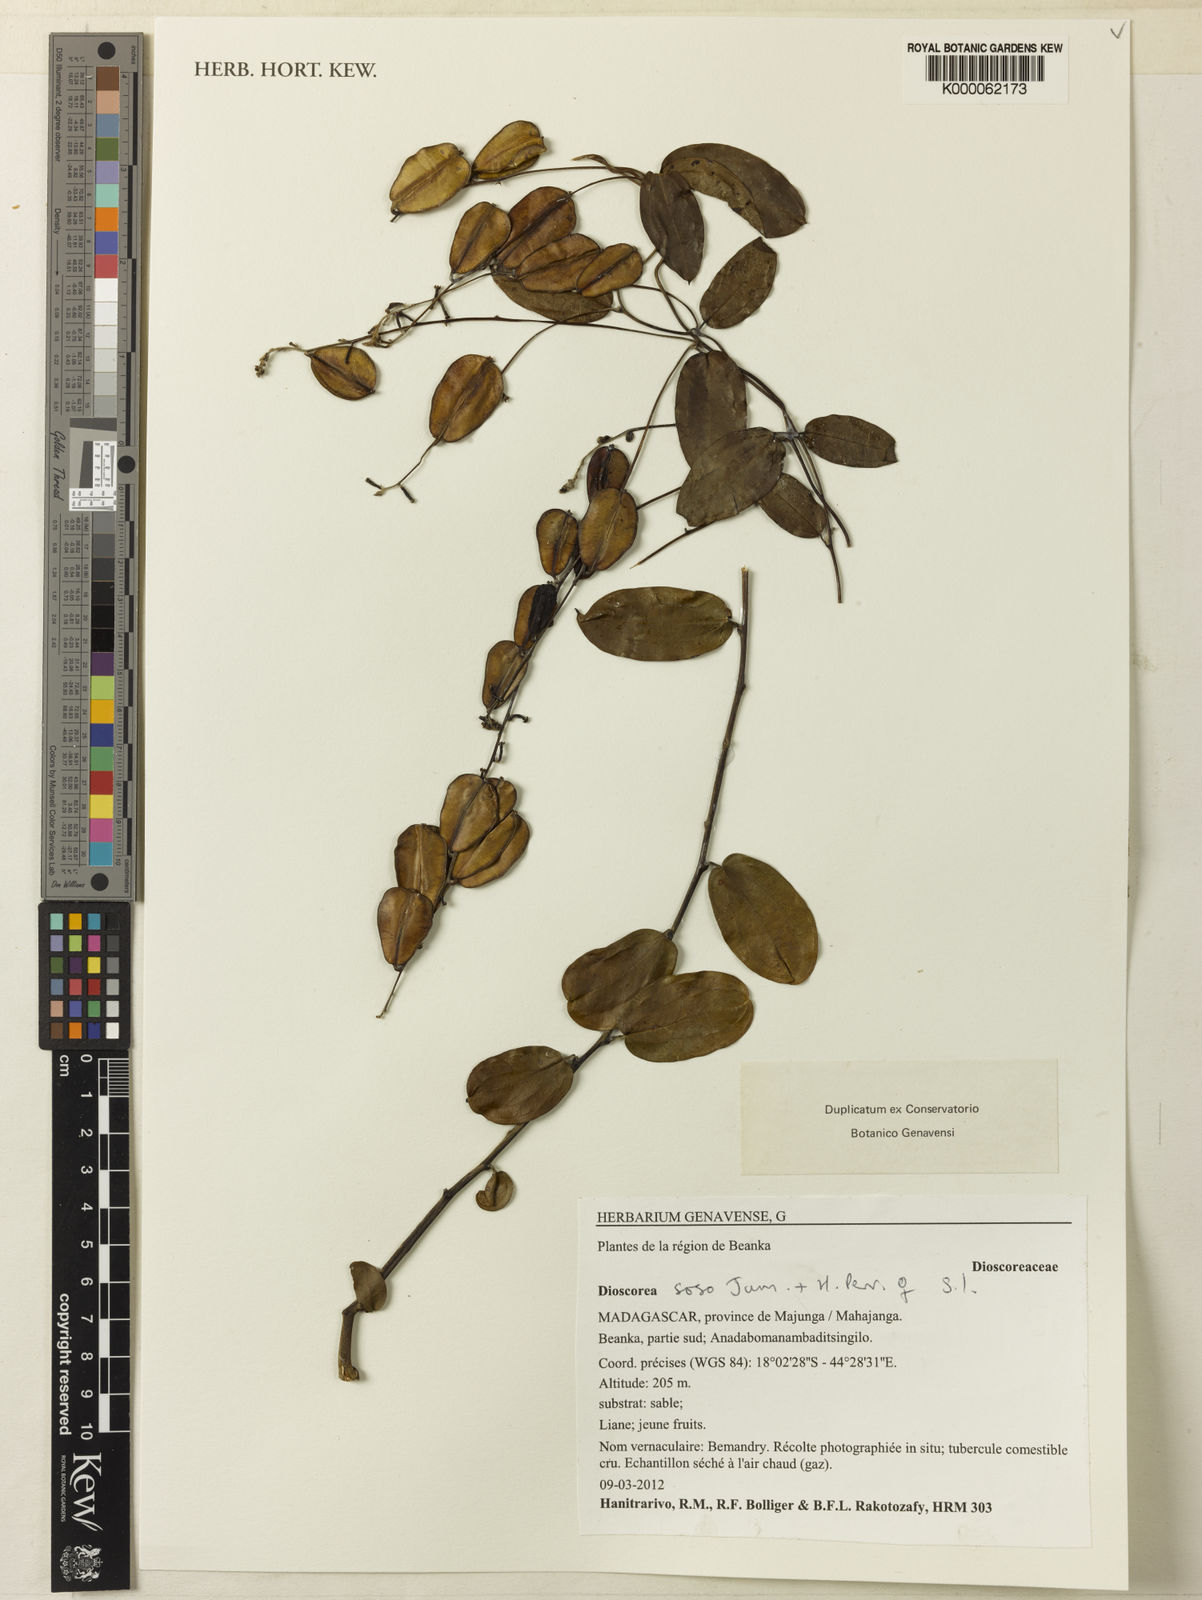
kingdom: Plantae
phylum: Tracheophyta
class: Liliopsida
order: Dioscoreales
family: Dioscoreaceae
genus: Dioscorea
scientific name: Dioscorea soso
